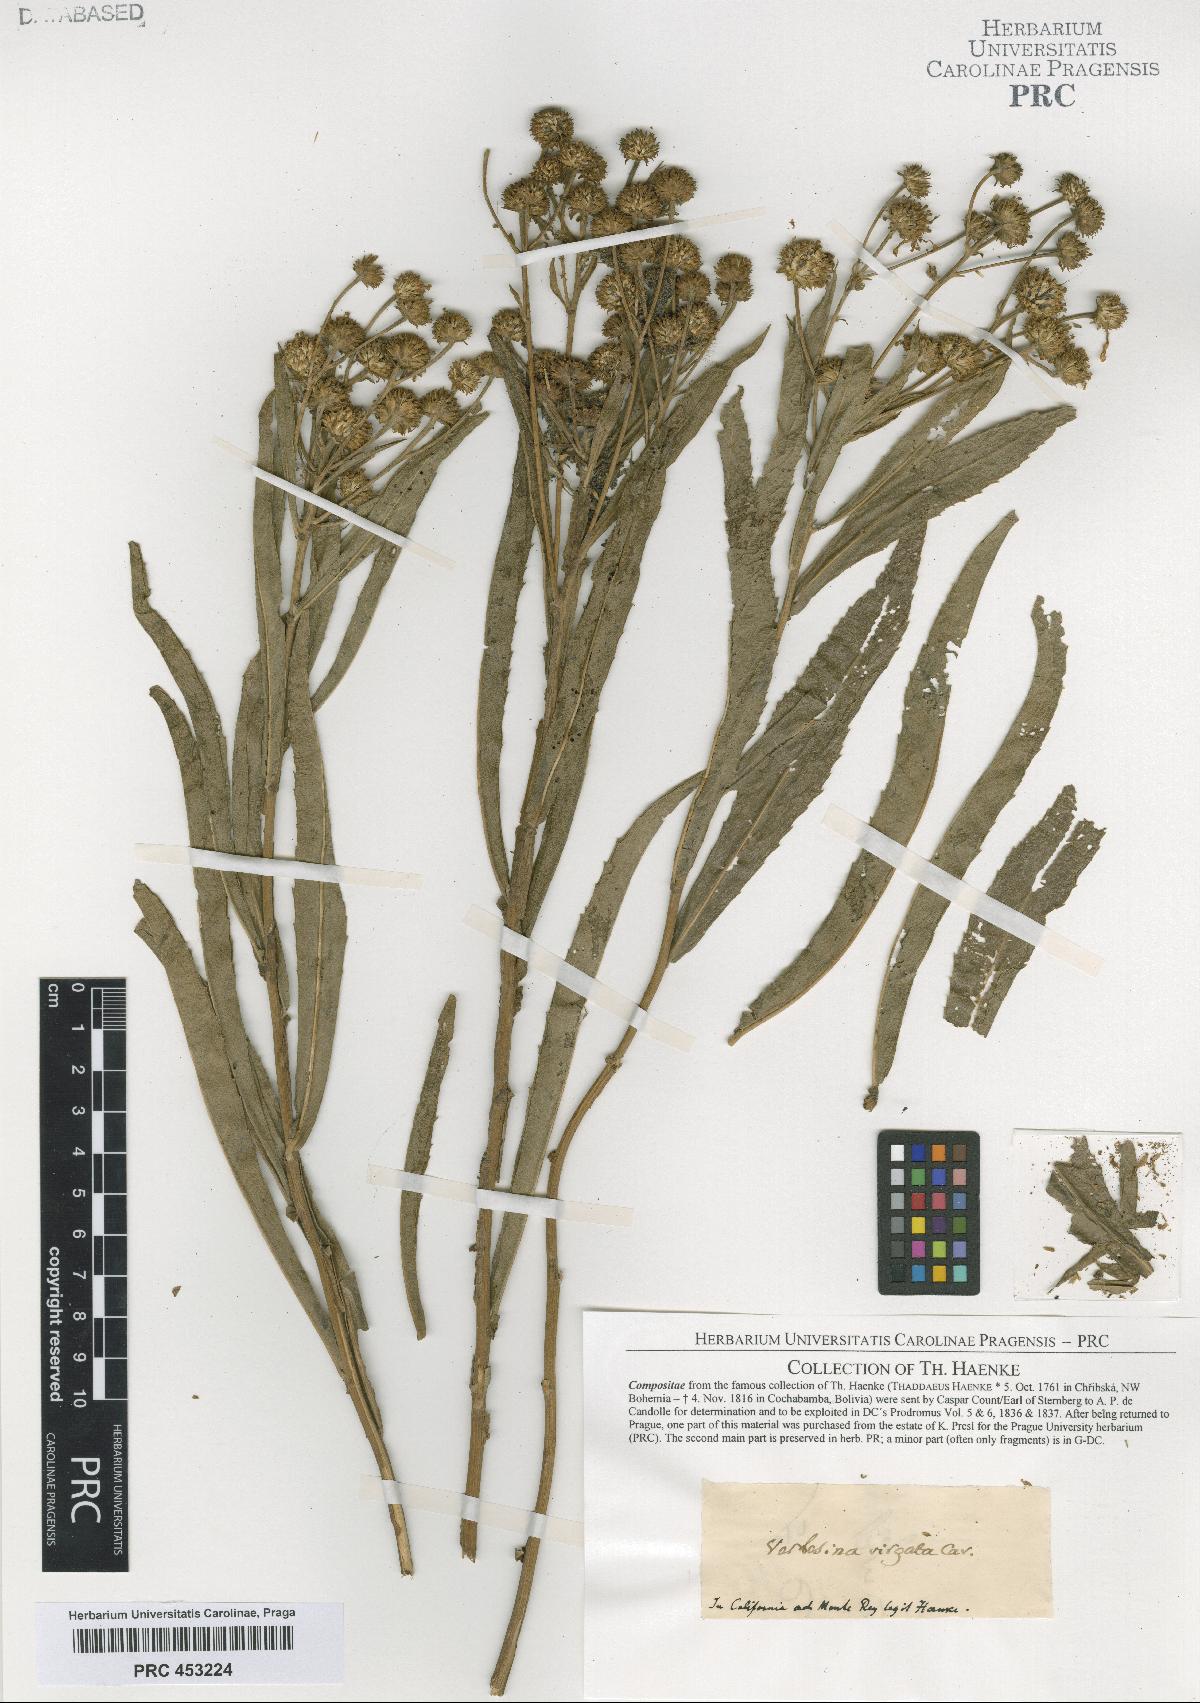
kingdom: Plantae
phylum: Tracheophyta
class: Magnoliopsida
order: Asterales
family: Asteraceae
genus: Verbesina
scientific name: Verbesina virgata
